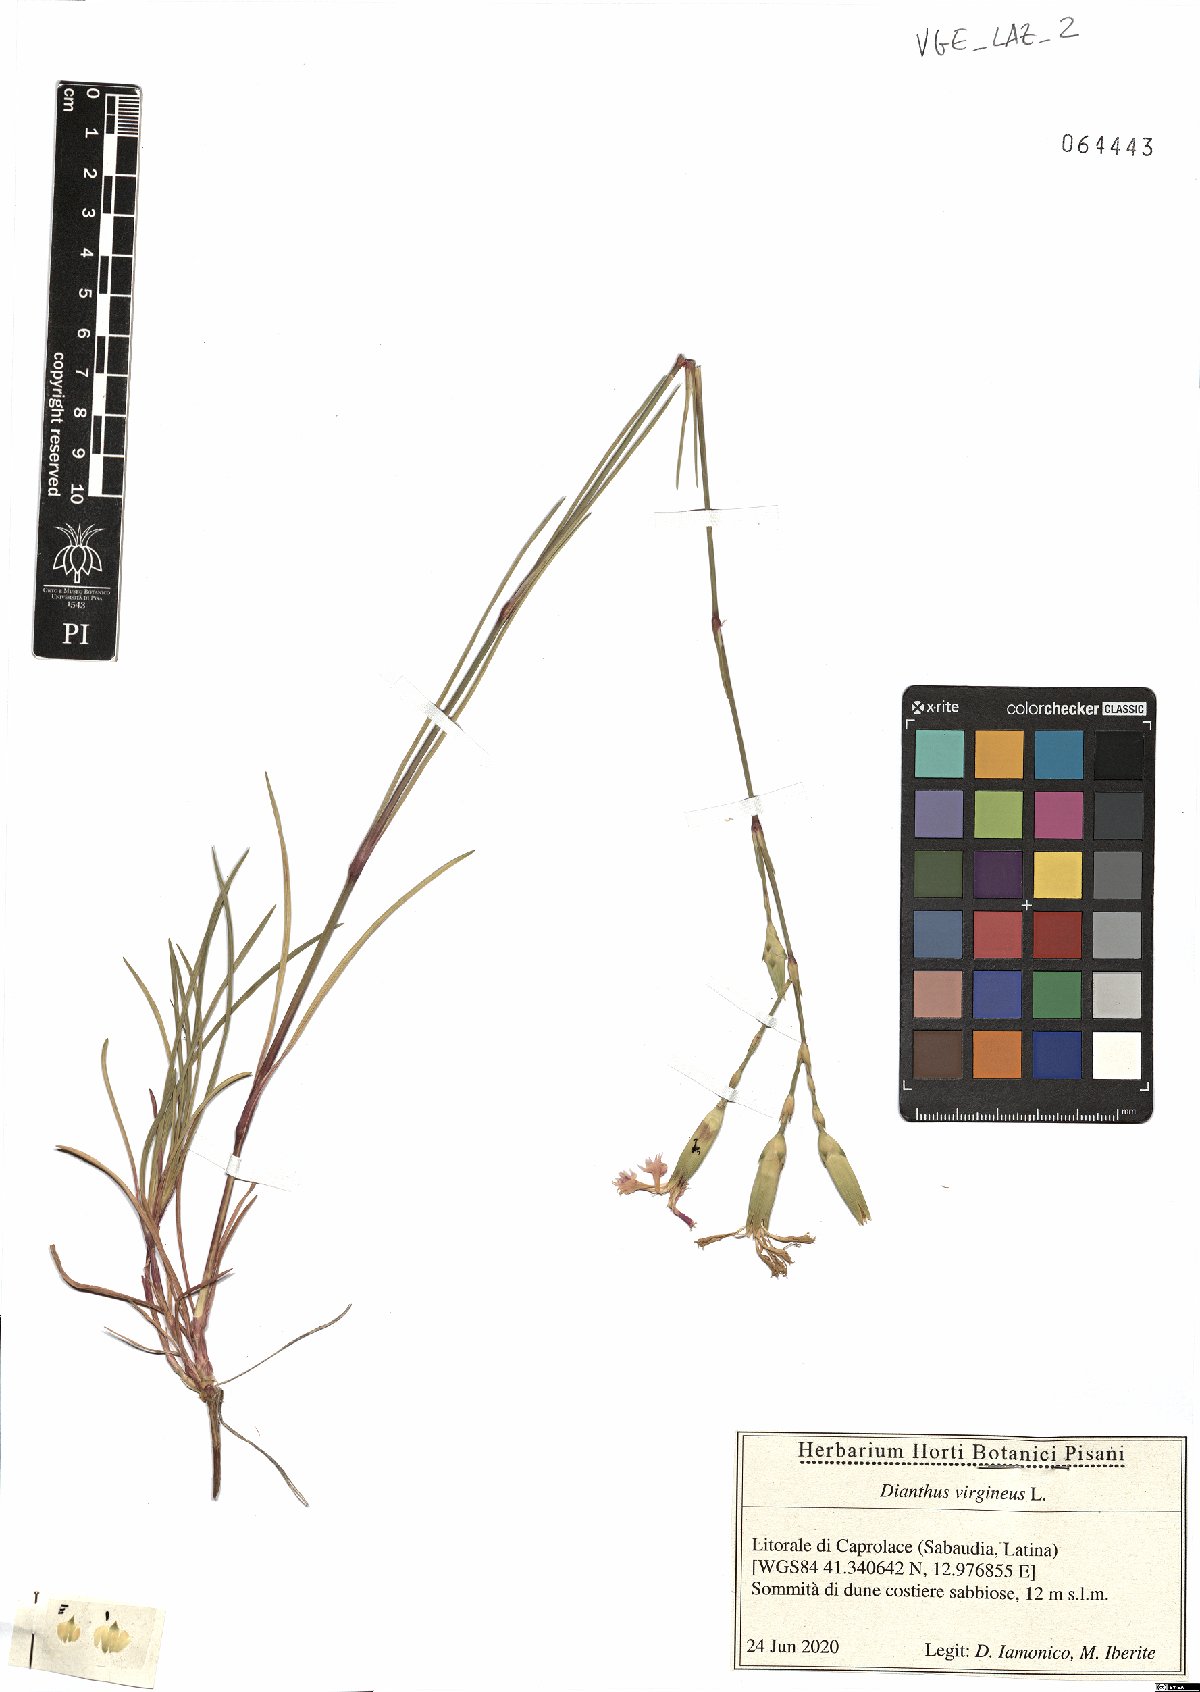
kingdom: Plantae
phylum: Tracheophyta
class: Magnoliopsida
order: Caryophyllales
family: Caryophyllaceae
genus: Dianthus
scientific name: Dianthus virgineus
